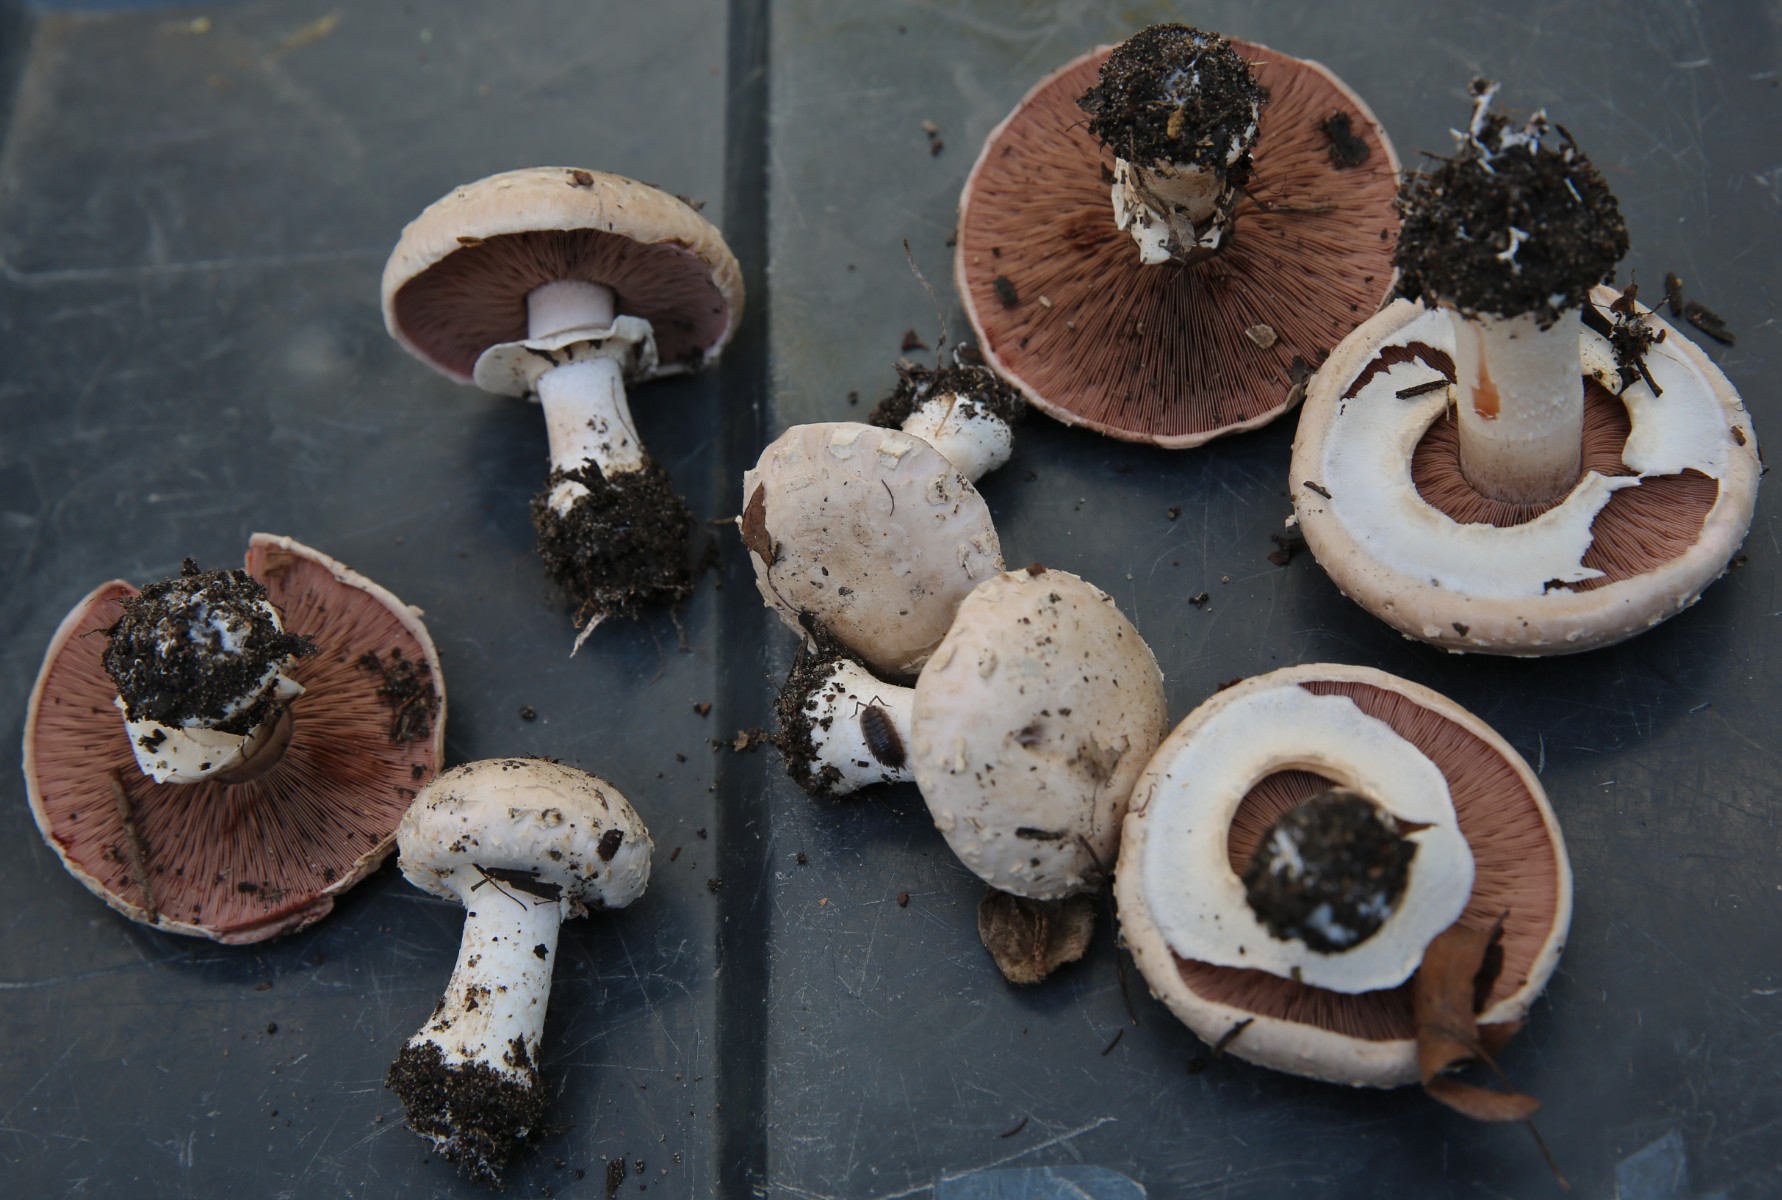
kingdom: Fungi
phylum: Basidiomycota
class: Agaricomycetes
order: Agaricales
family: Agaricaceae
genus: Agaricus
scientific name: Agaricus
